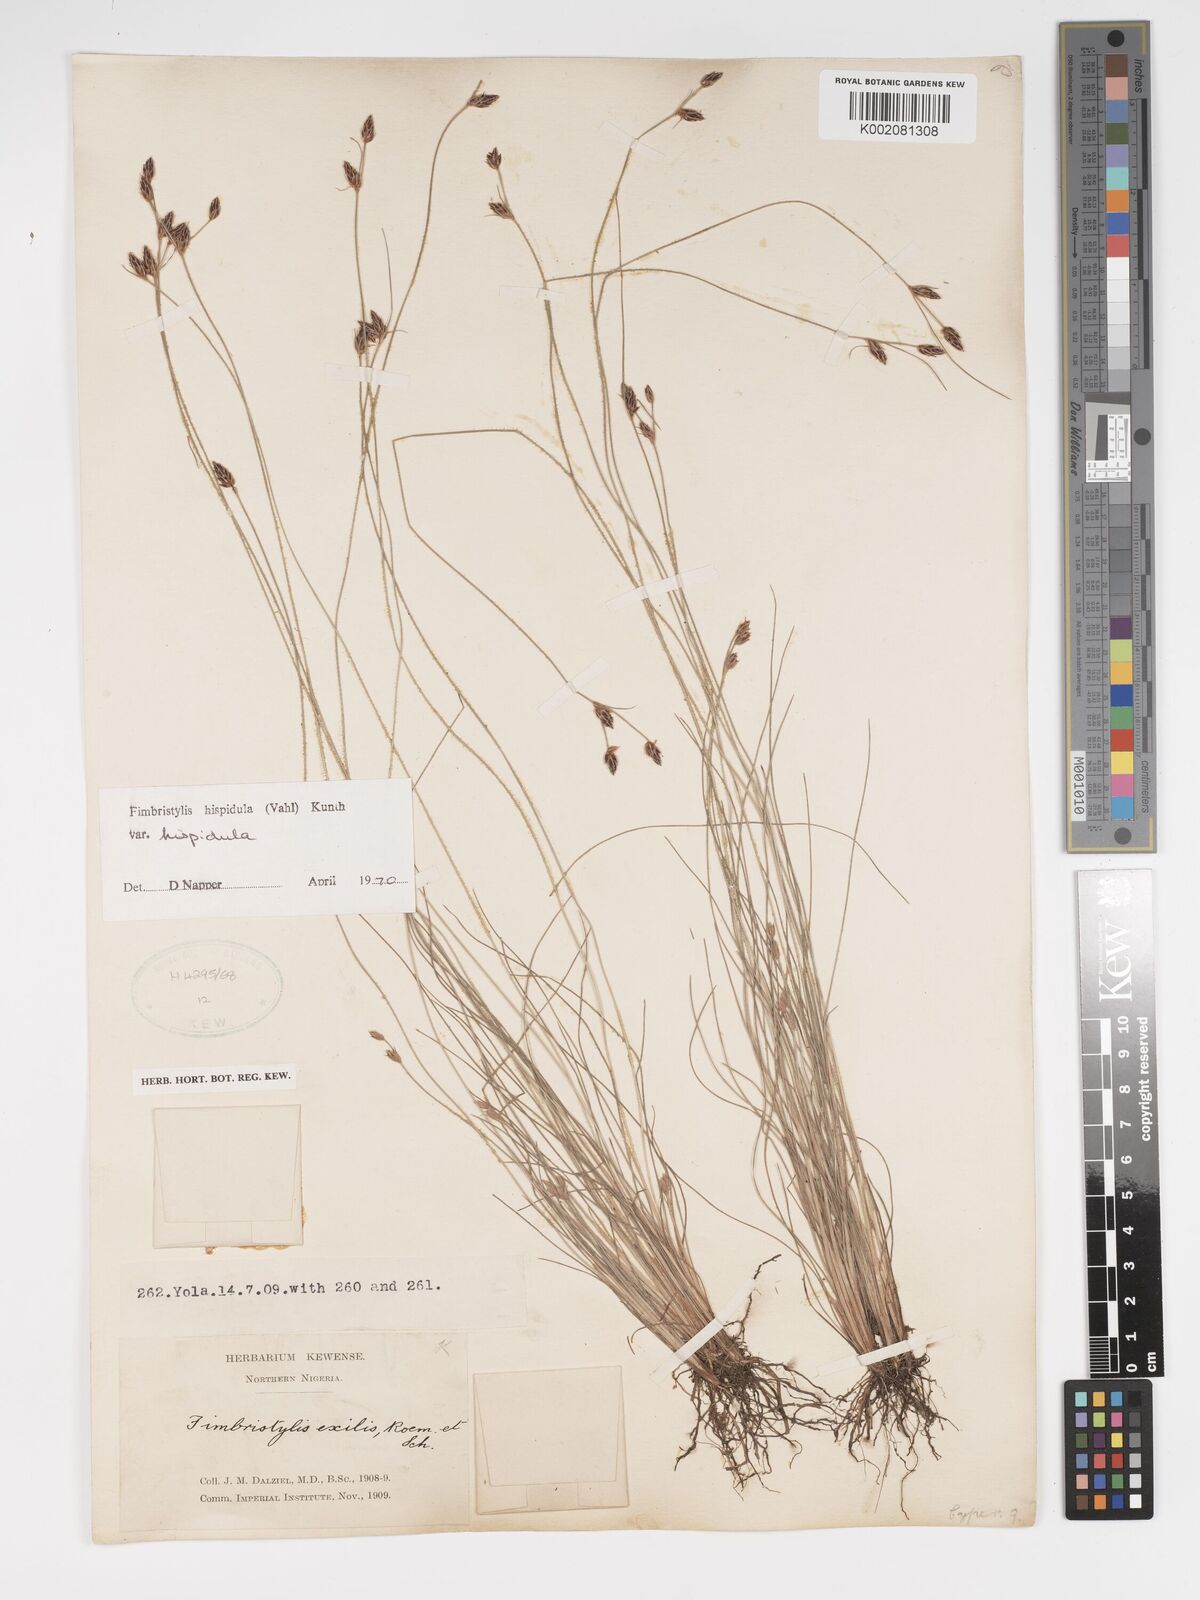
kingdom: Plantae
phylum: Tracheophyta
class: Liliopsida
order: Poales
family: Cyperaceae
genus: Bulbostylis
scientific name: Bulbostylis hispidula
